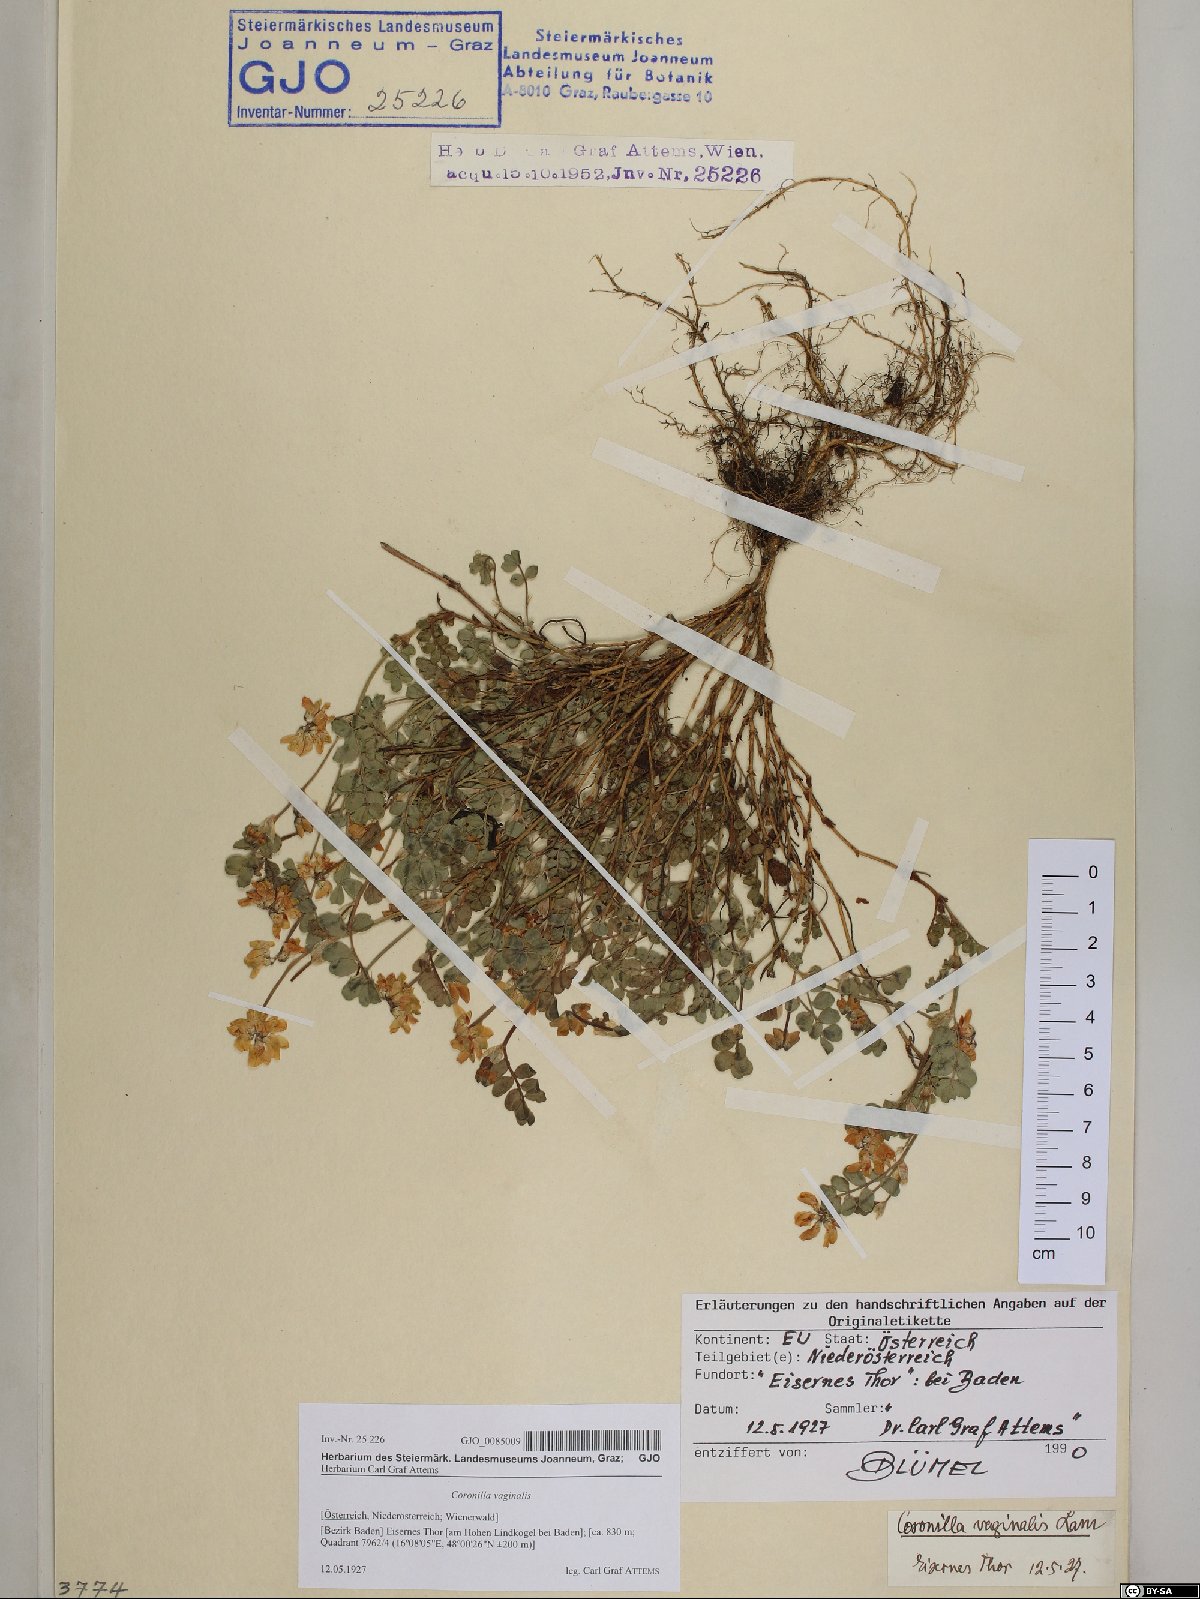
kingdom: Plantae
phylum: Tracheophyta
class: Magnoliopsida
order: Fabales
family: Fabaceae
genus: Coronilla
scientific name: Coronilla vaginalis
